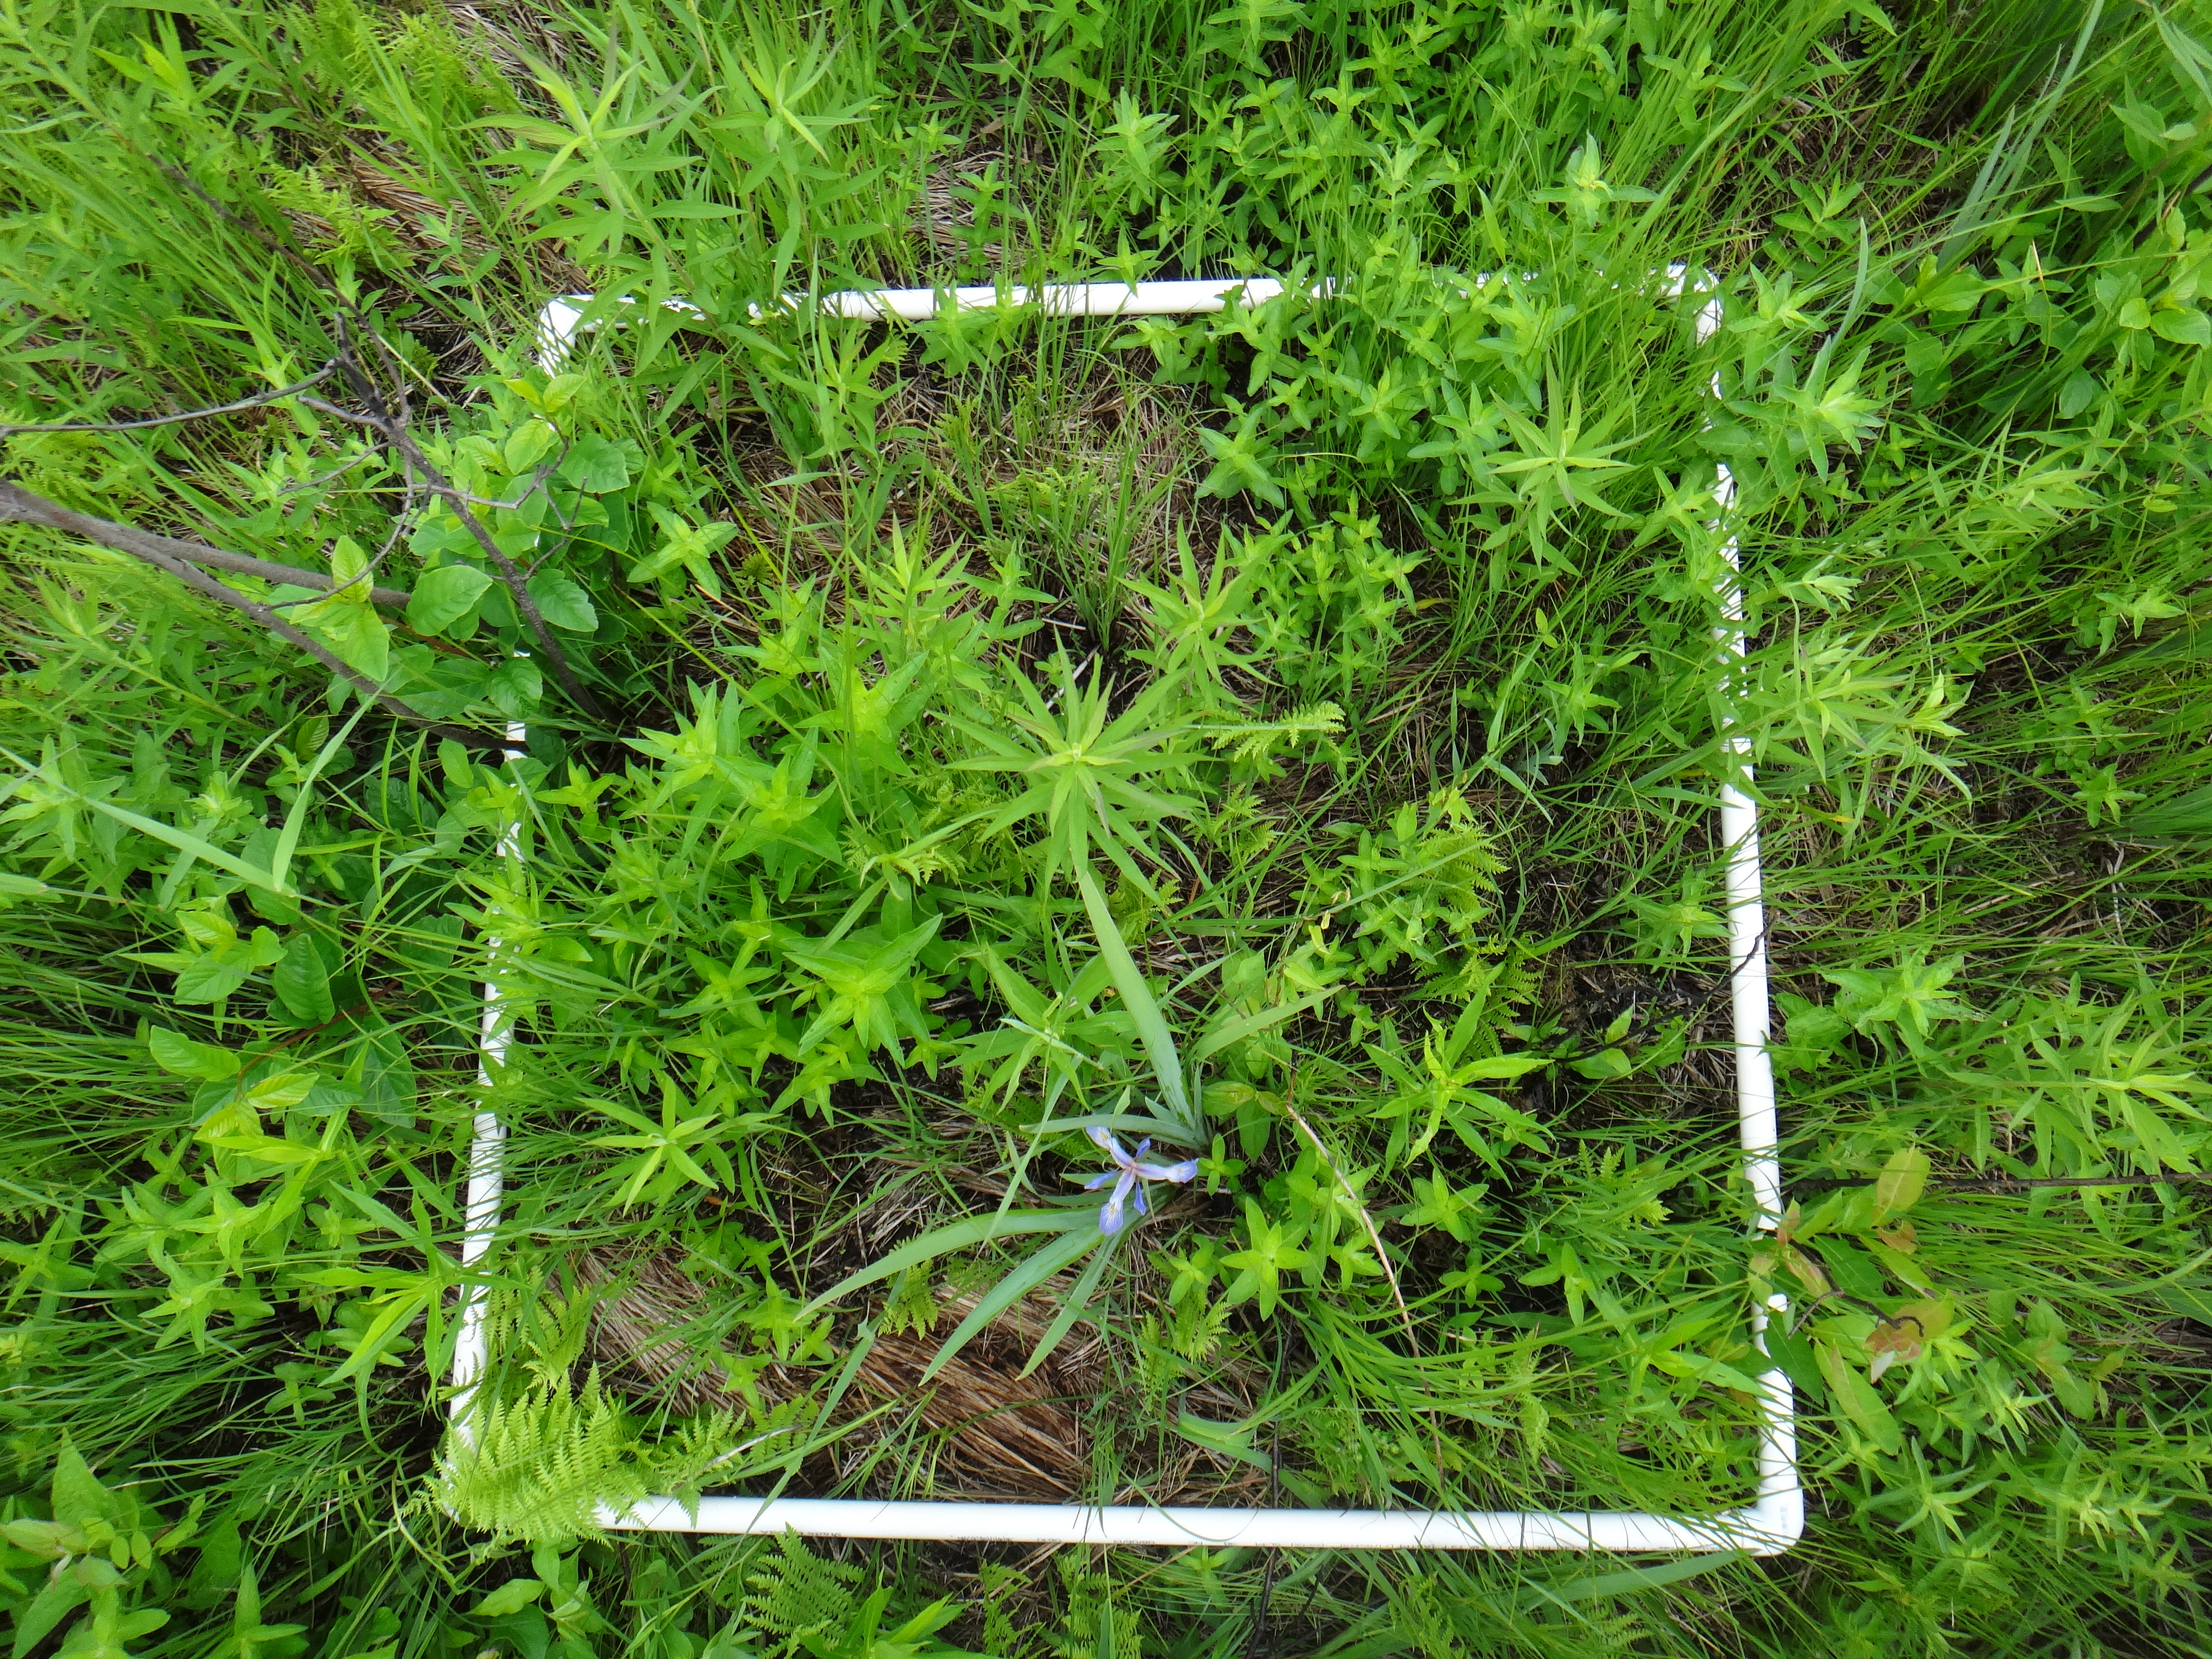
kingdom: Plantae
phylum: Tracheophyta
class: Magnoliopsida
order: Myrtales
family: Lythraceae
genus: Lythrum
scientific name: Lythrum salicaria
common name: Purple loosestrife
